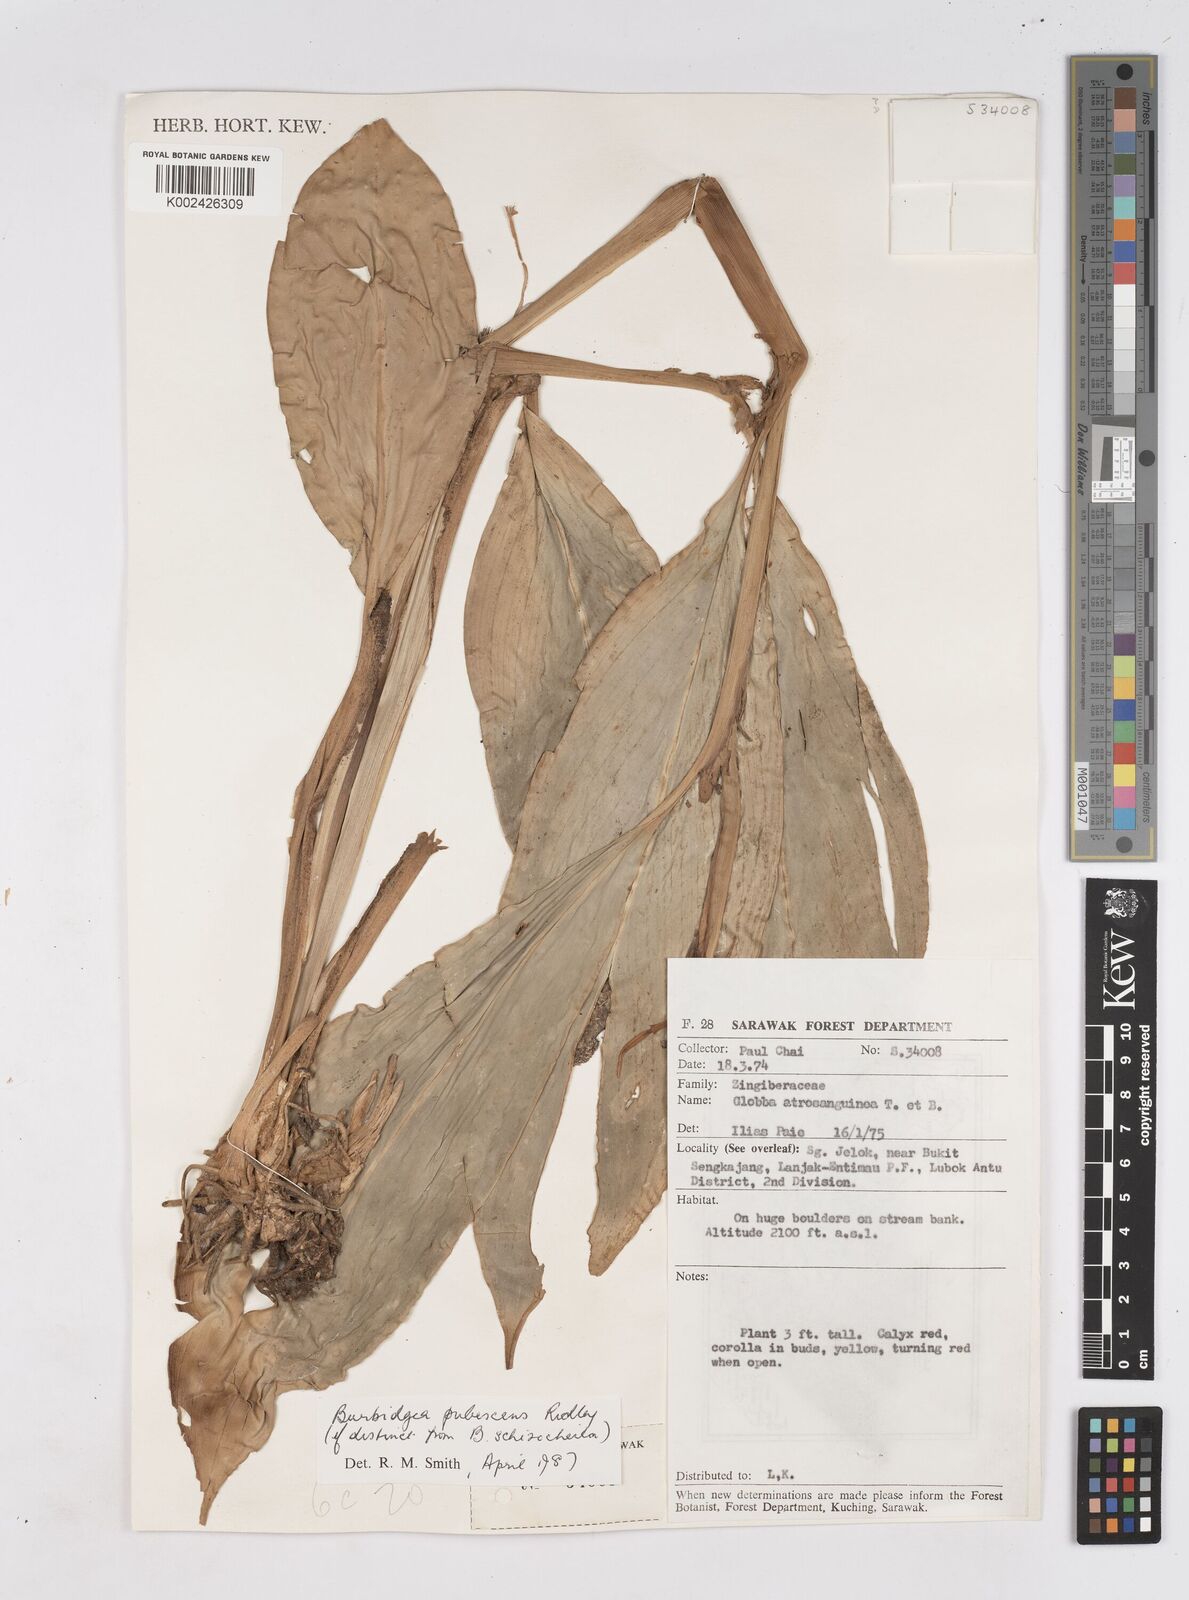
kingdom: Plantae
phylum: Tracheophyta
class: Liliopsida
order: Zingiberales
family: Zingiberaceae
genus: Burbidgea
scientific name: Burbidgea schizocheila
